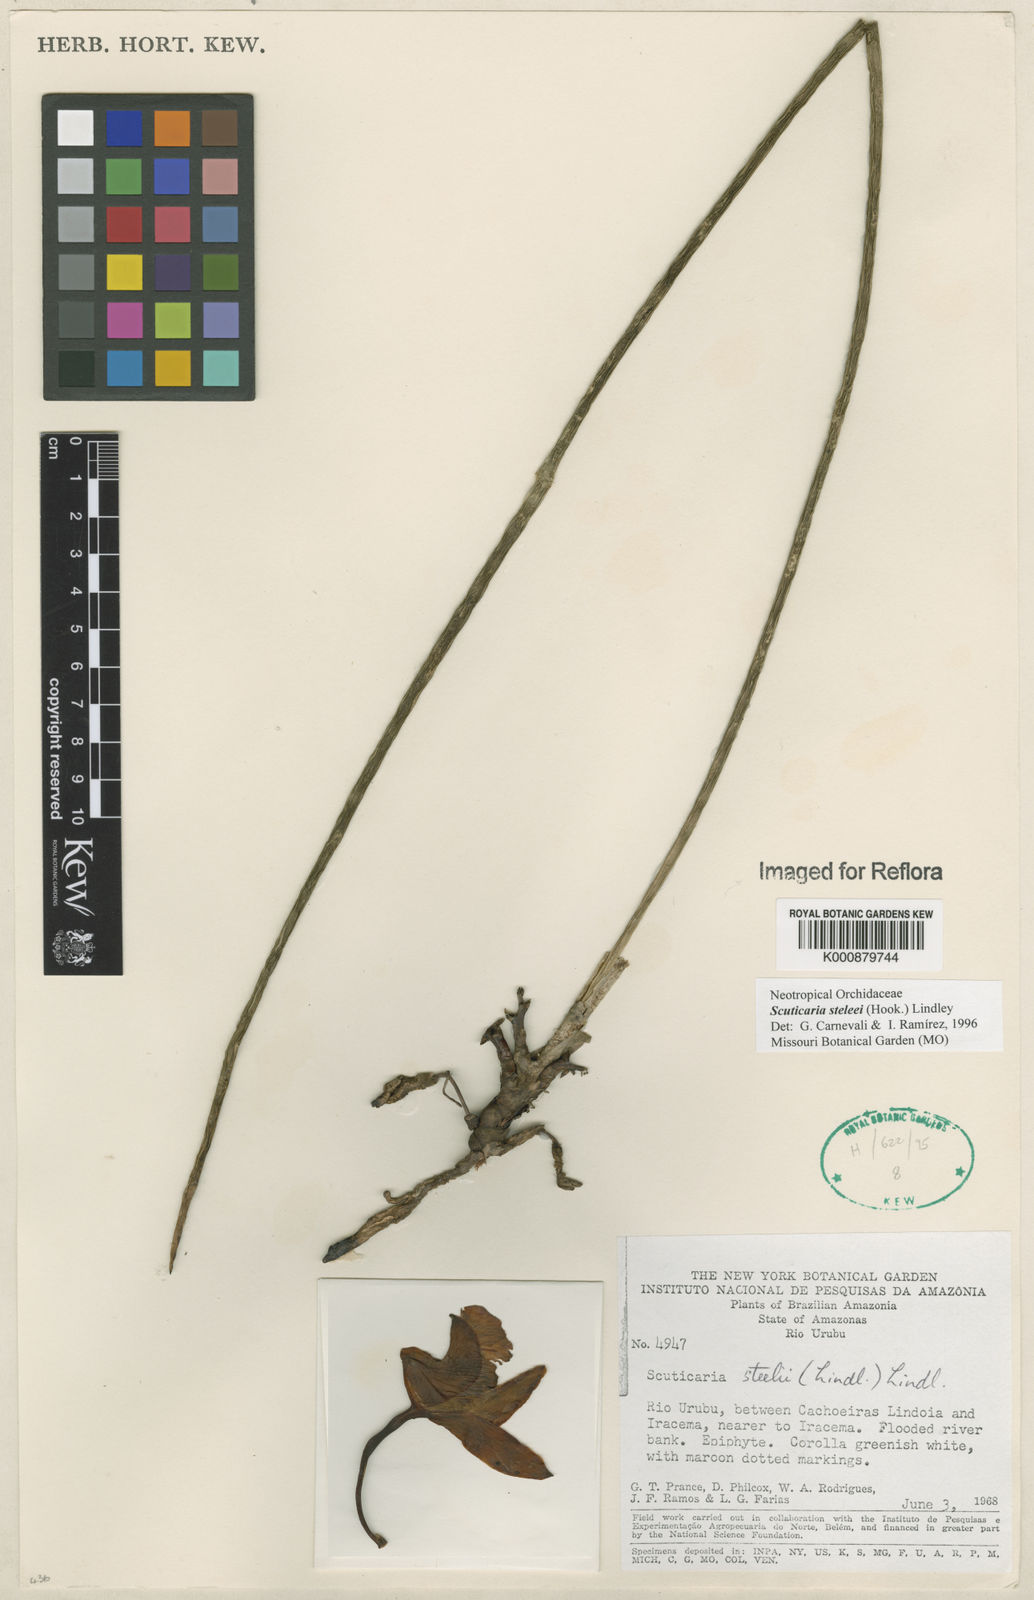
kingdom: Plantae
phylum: Tracheophyta
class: Liliopsida
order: Asparagales
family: Orchidaceae
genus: Scuticaria
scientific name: Scuticaria steelei
